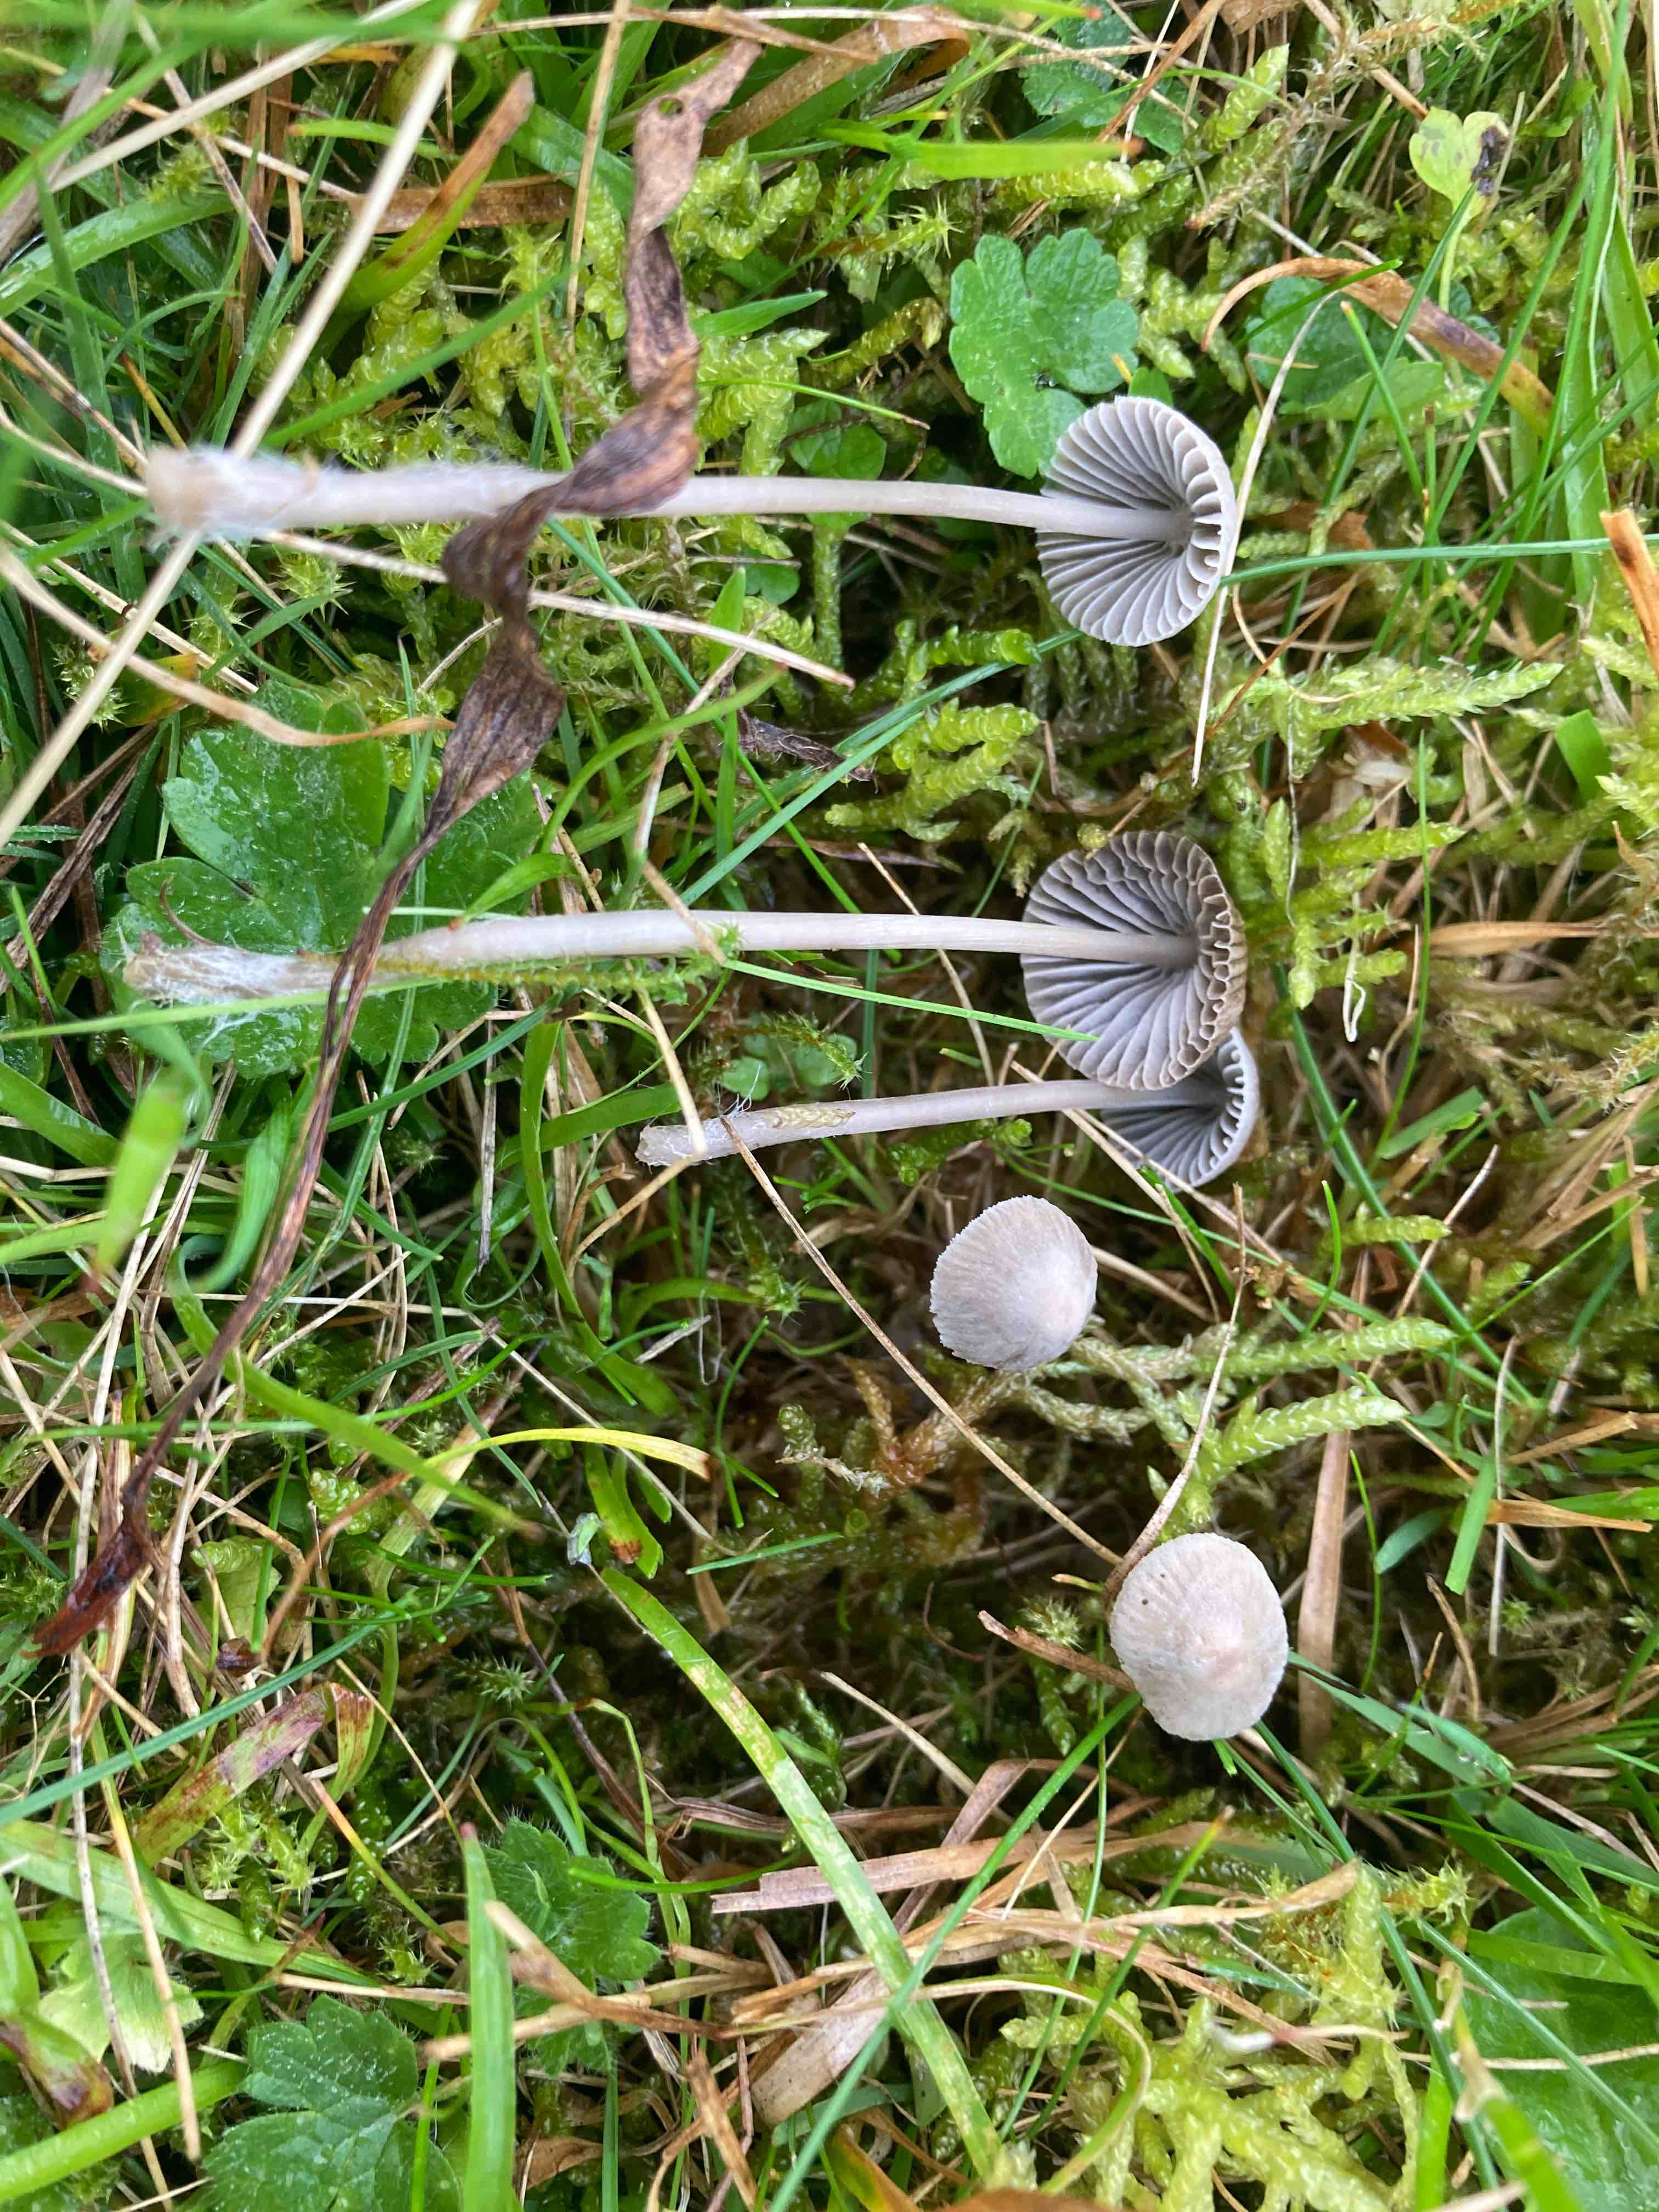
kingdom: Fungi
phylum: Basidiomycota
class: Agaricomycetes
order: Agaricales
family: Mycenaceae
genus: Mycena
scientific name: Mycena aetites
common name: plæne-huesvamp
